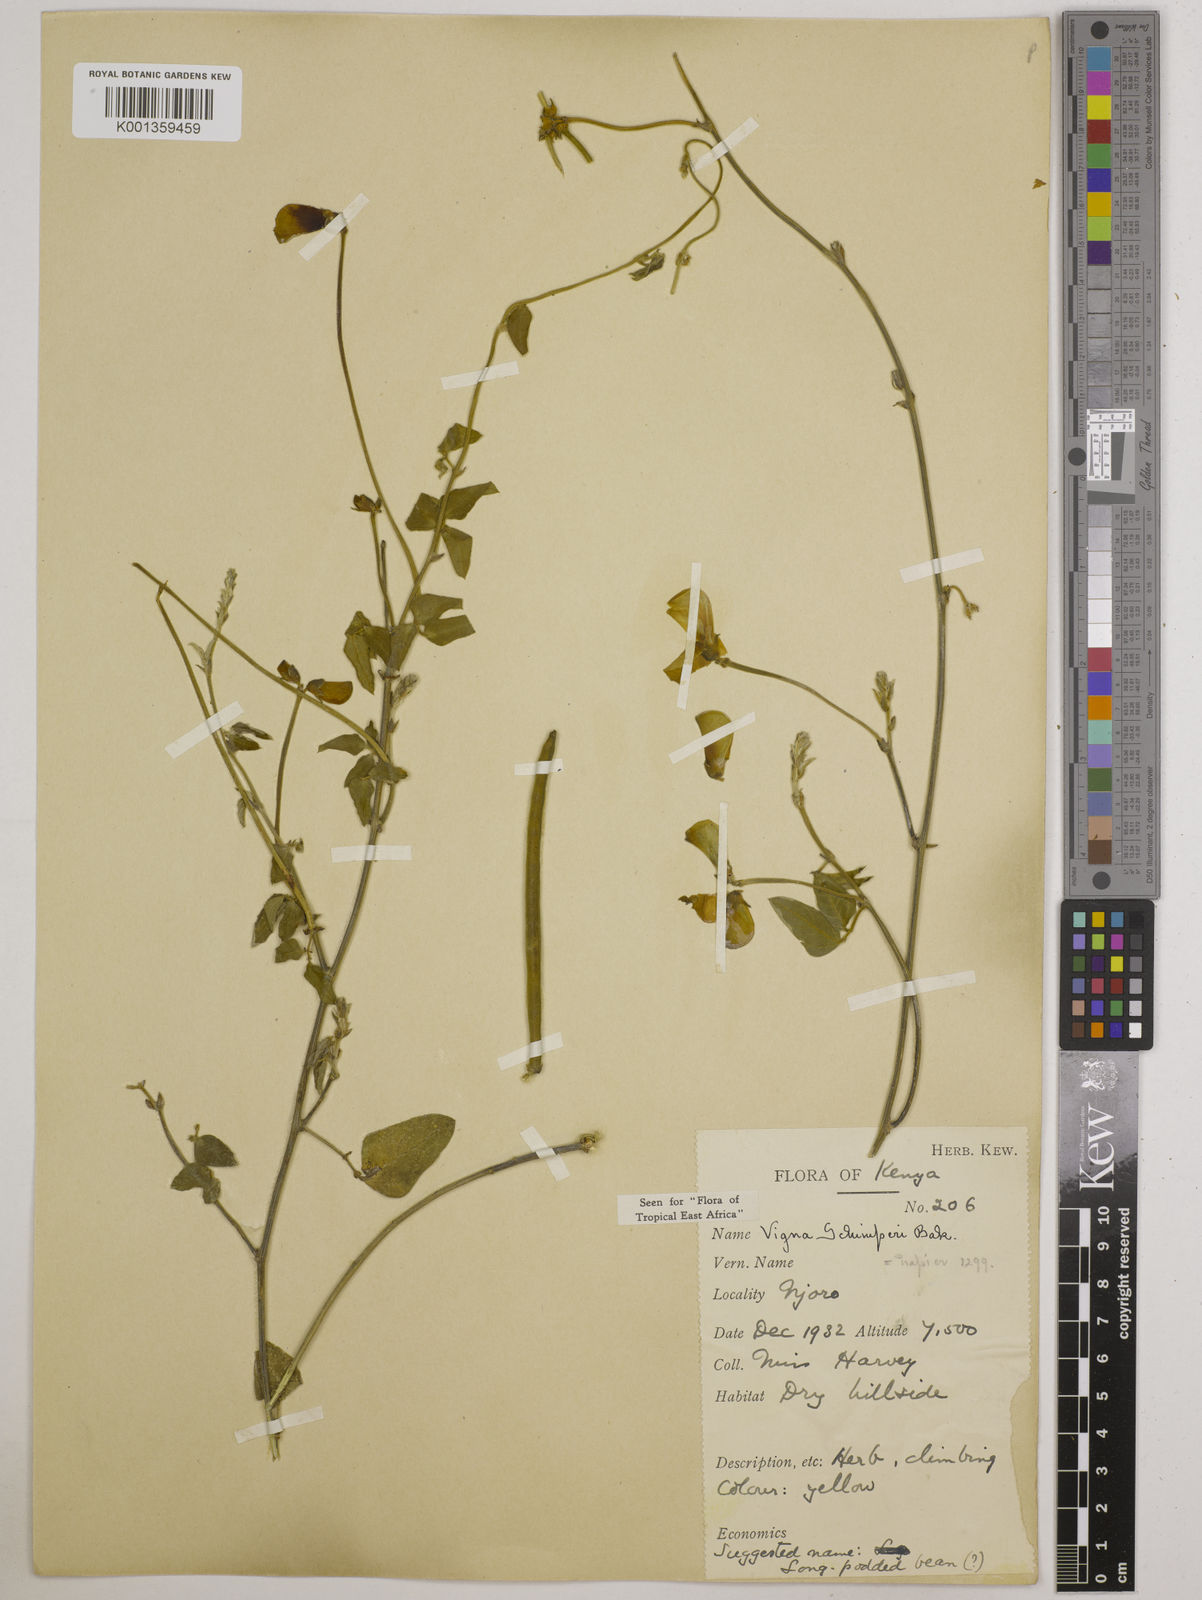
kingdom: Plantae
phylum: Tracheophyta
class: Magnoliopsida
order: Fabales
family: Fabaceae
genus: Vigna
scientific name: Vigna schimperi
